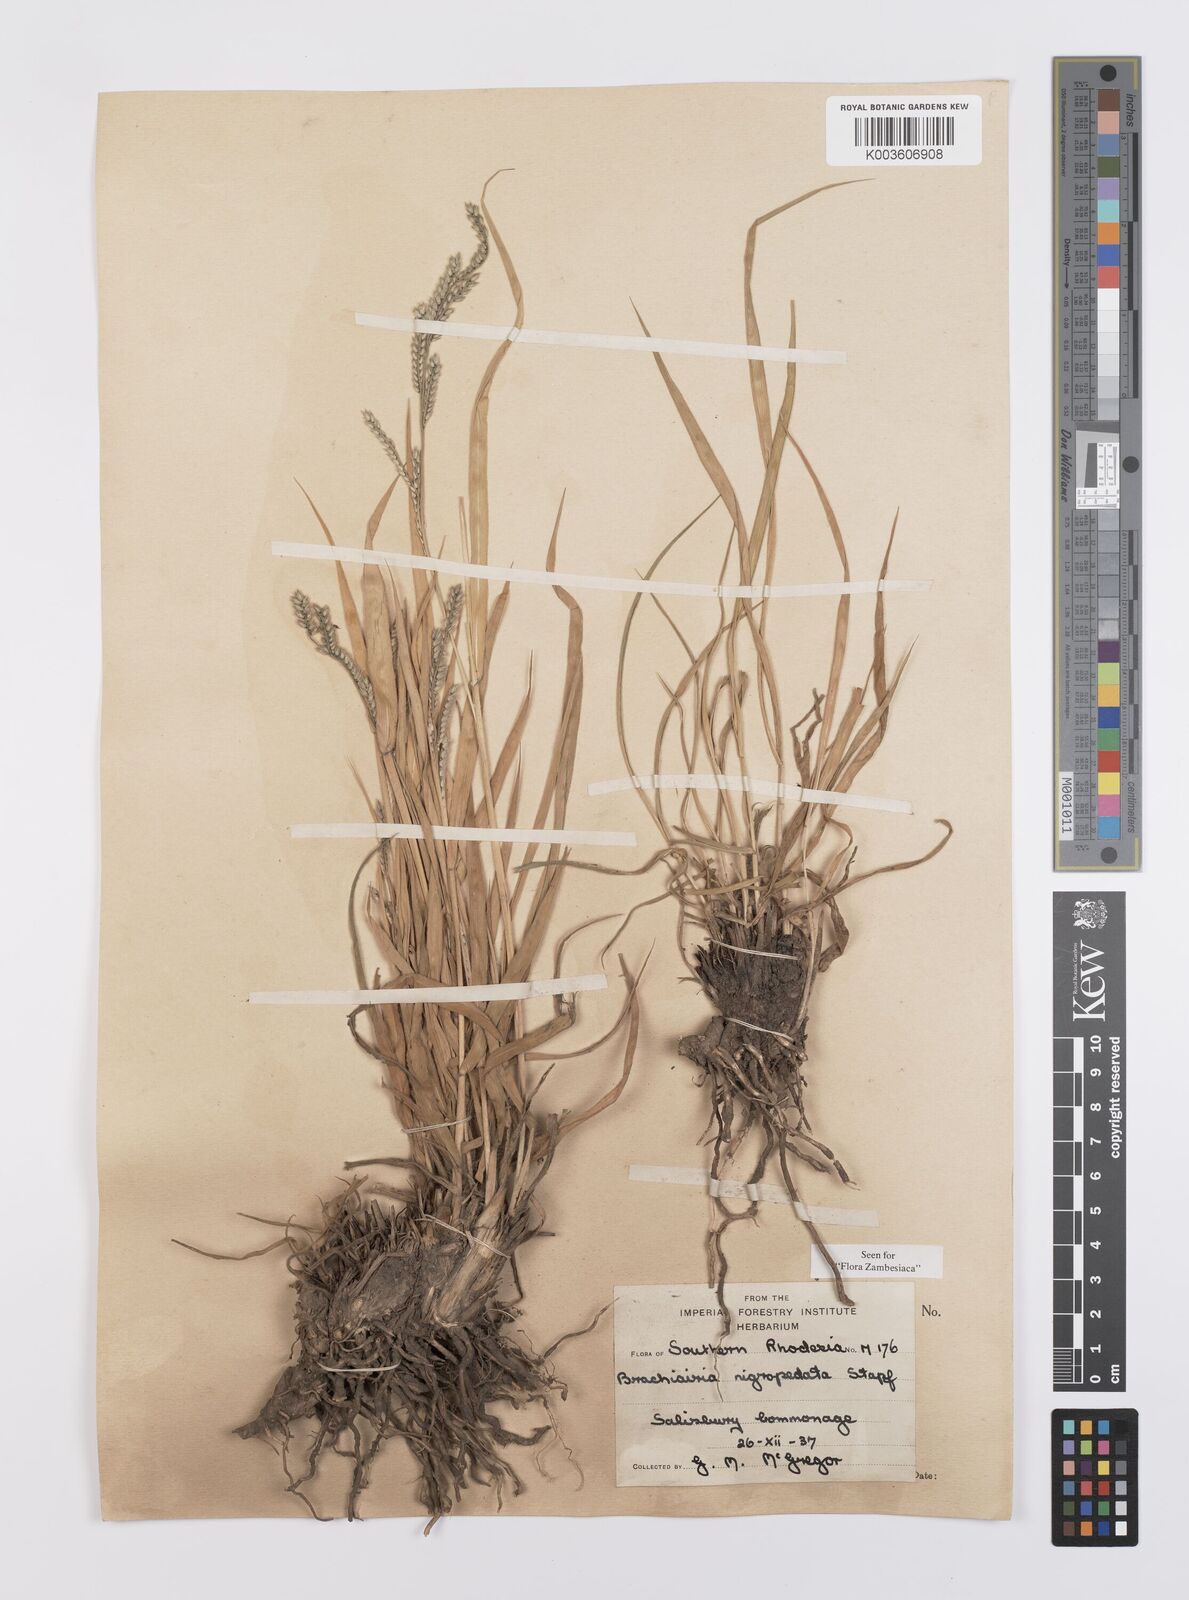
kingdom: Plantae
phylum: Tracheophyta
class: Liliopsida
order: Poales
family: Poaceae
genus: Urochloa
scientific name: Urochloa nigropedata
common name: Spotted signal grass
